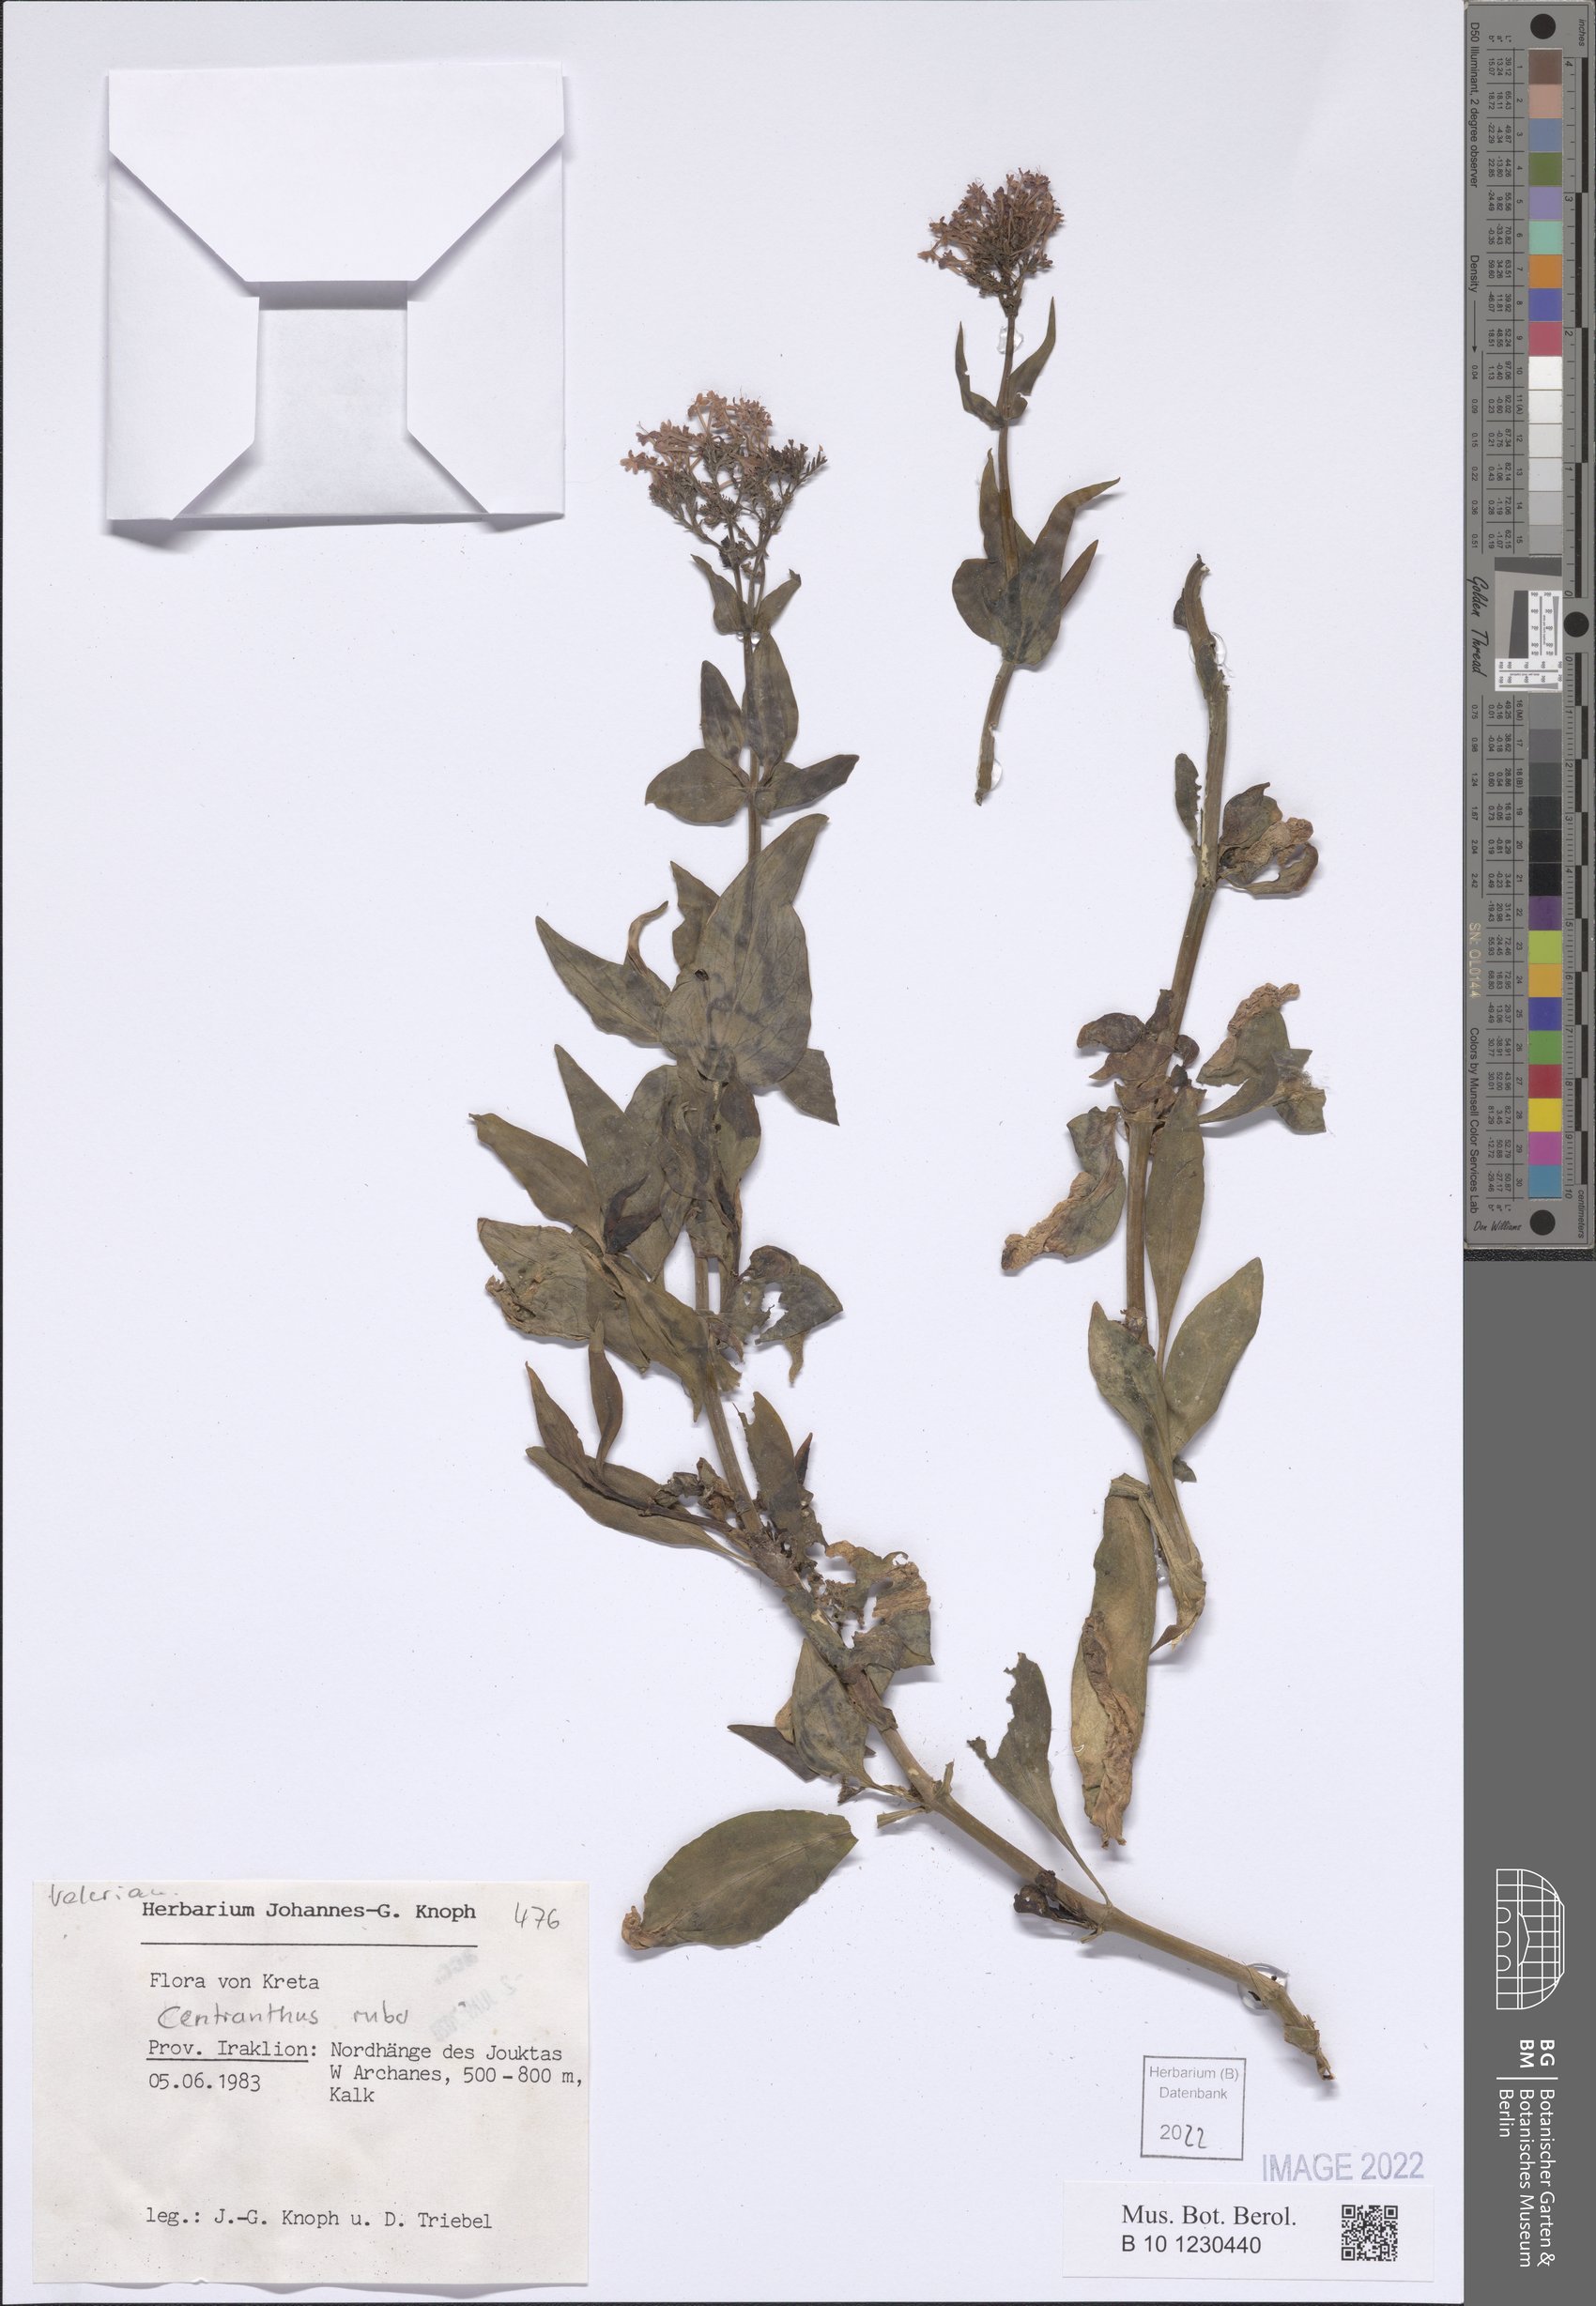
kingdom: Plantae
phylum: Tracheophyta
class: Magnoliopsida
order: Dipsacales
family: Caprifoliaceae
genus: Centranthus
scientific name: Centranthus ruber
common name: Red valerian
